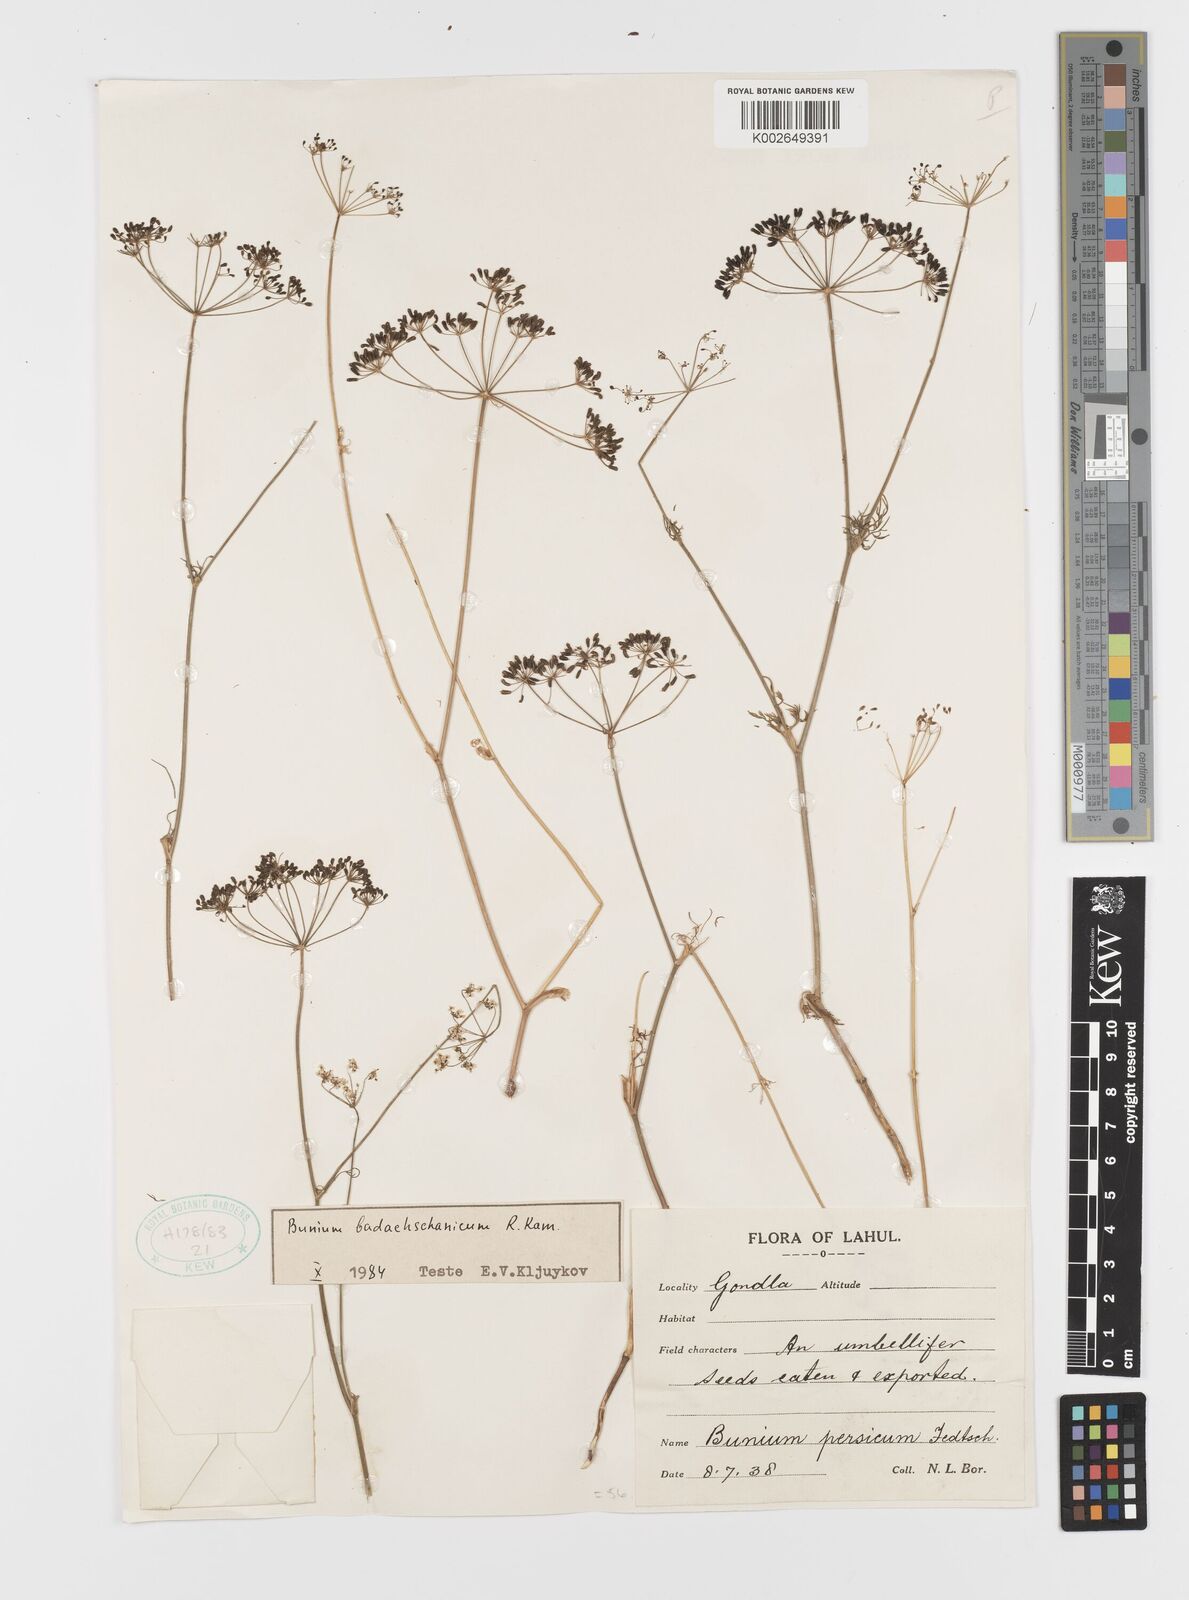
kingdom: Plantae
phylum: Tracheophyta
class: Magnoliopsida
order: Apiales
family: Apiaceae
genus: Elwendia
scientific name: Elwendia badachschanica
